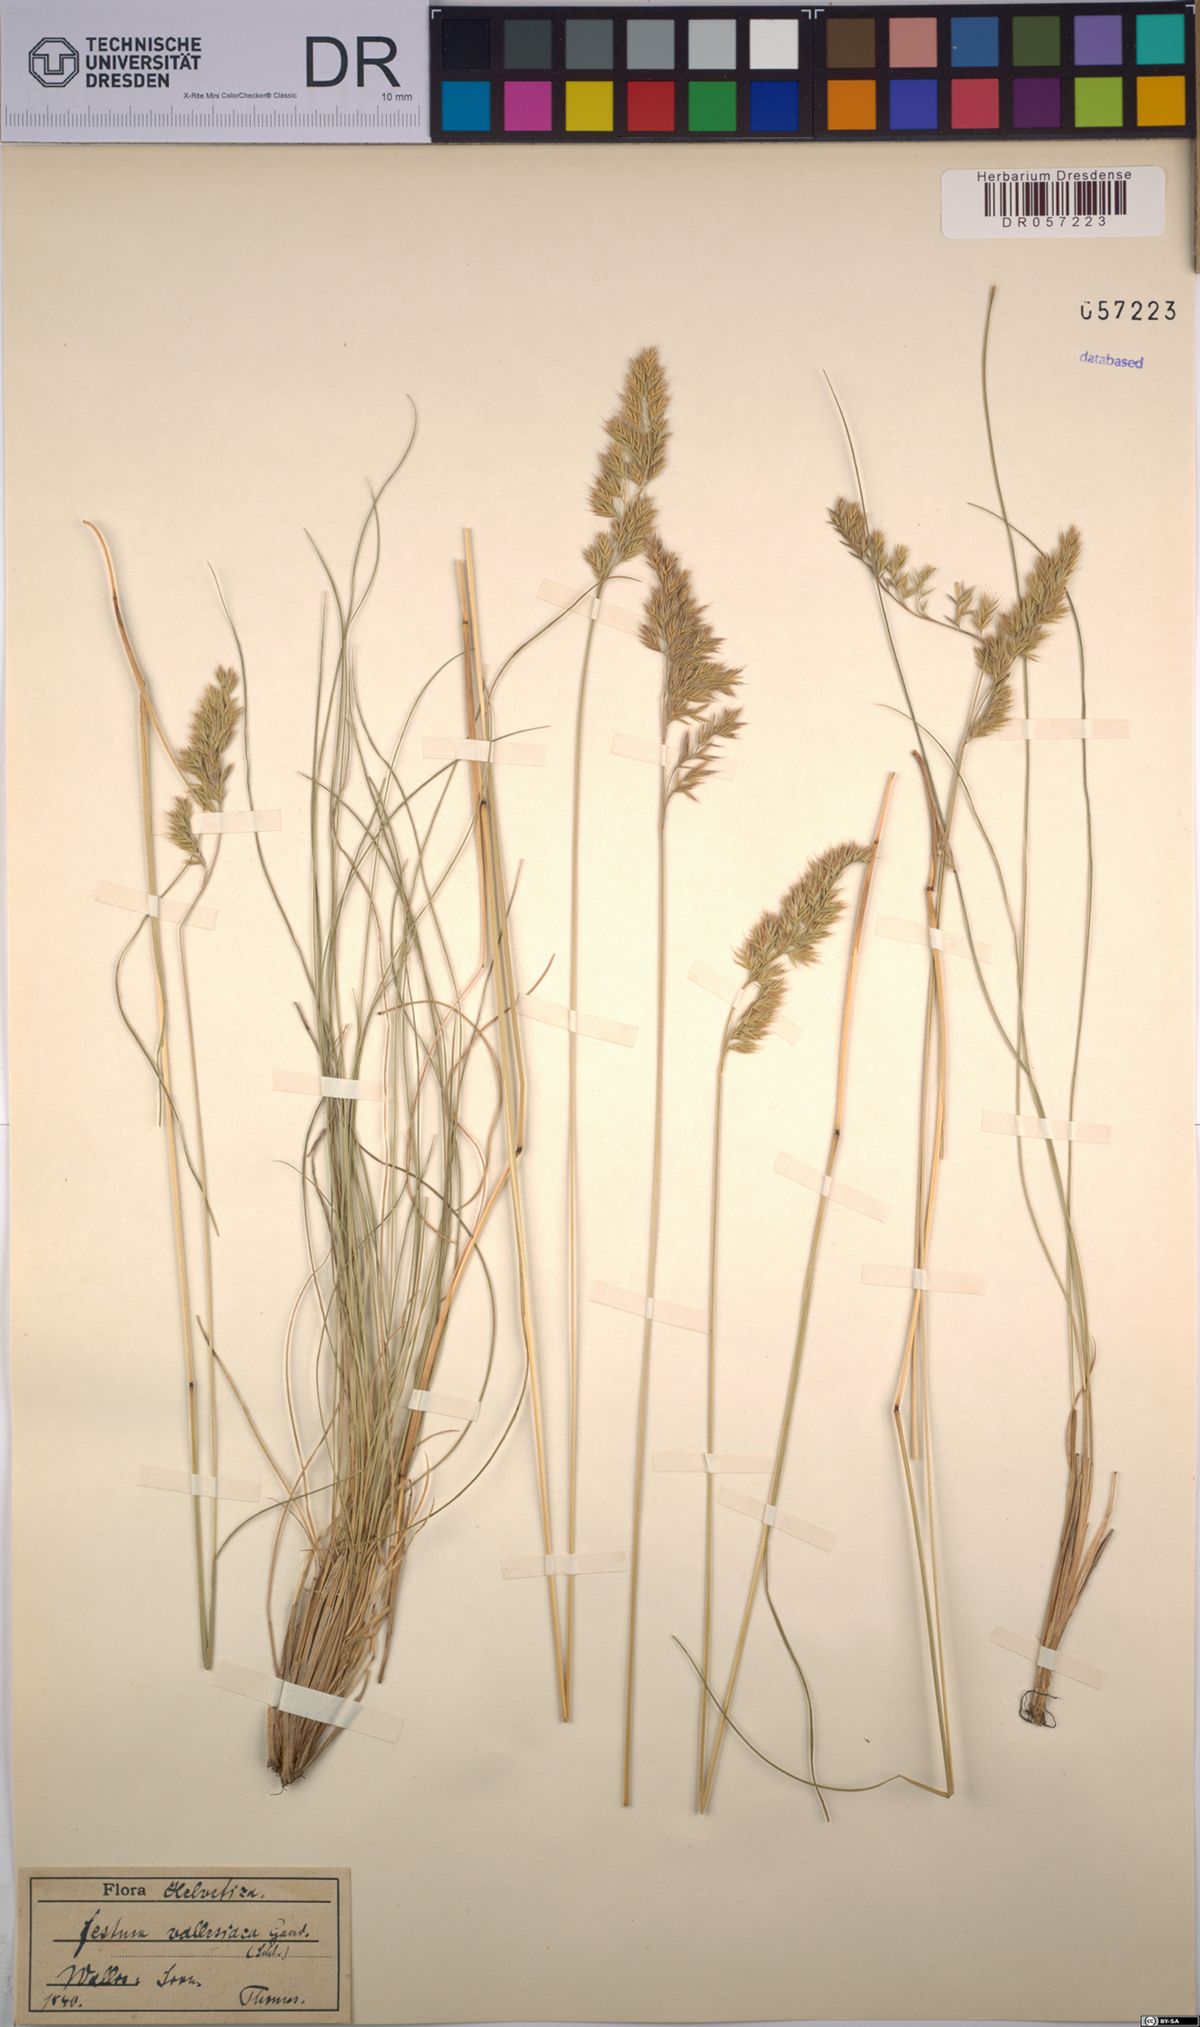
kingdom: Plantae
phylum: Tracheophyta
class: Liliopsida
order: Poales
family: Poaceae
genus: Festuca
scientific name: Festuca valesiaca
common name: Volga fescue
